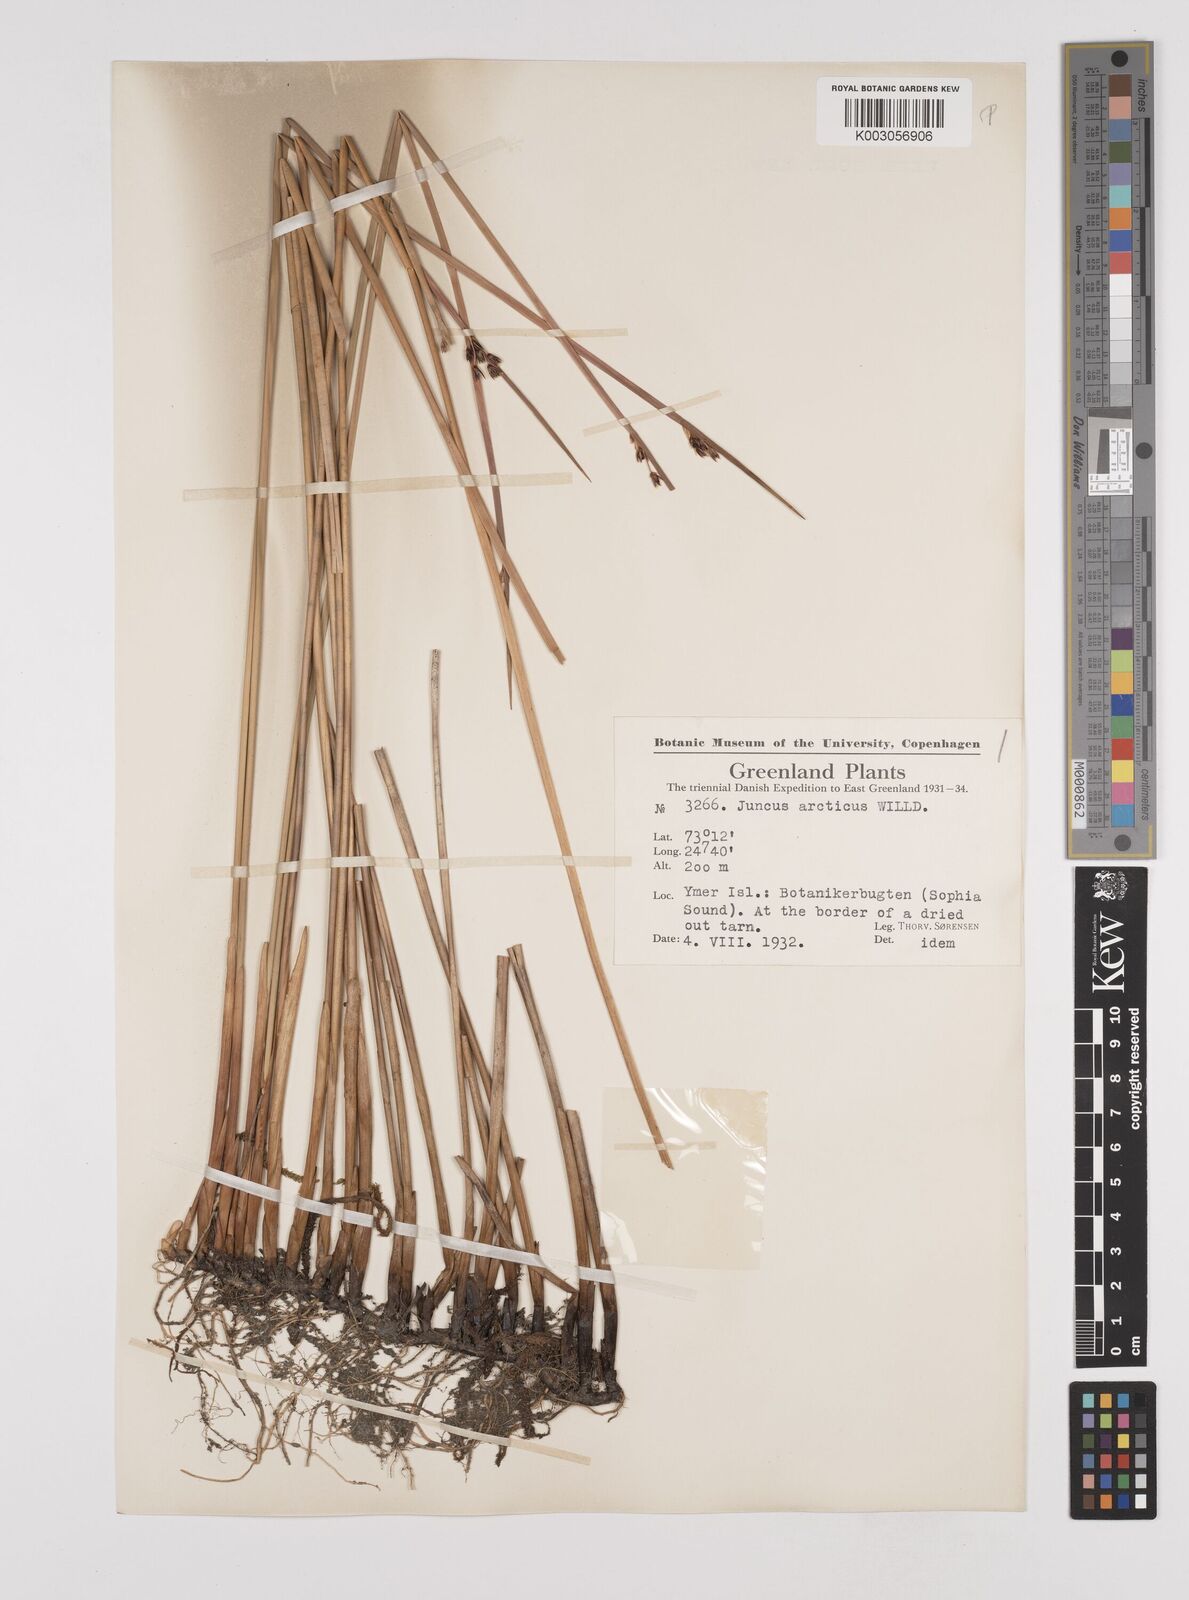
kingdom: Plantae
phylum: Tracheophyta
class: Liliopsida
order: Poales
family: Juncaceae
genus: Juncus
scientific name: Juncus arcticus
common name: Arctic rush
